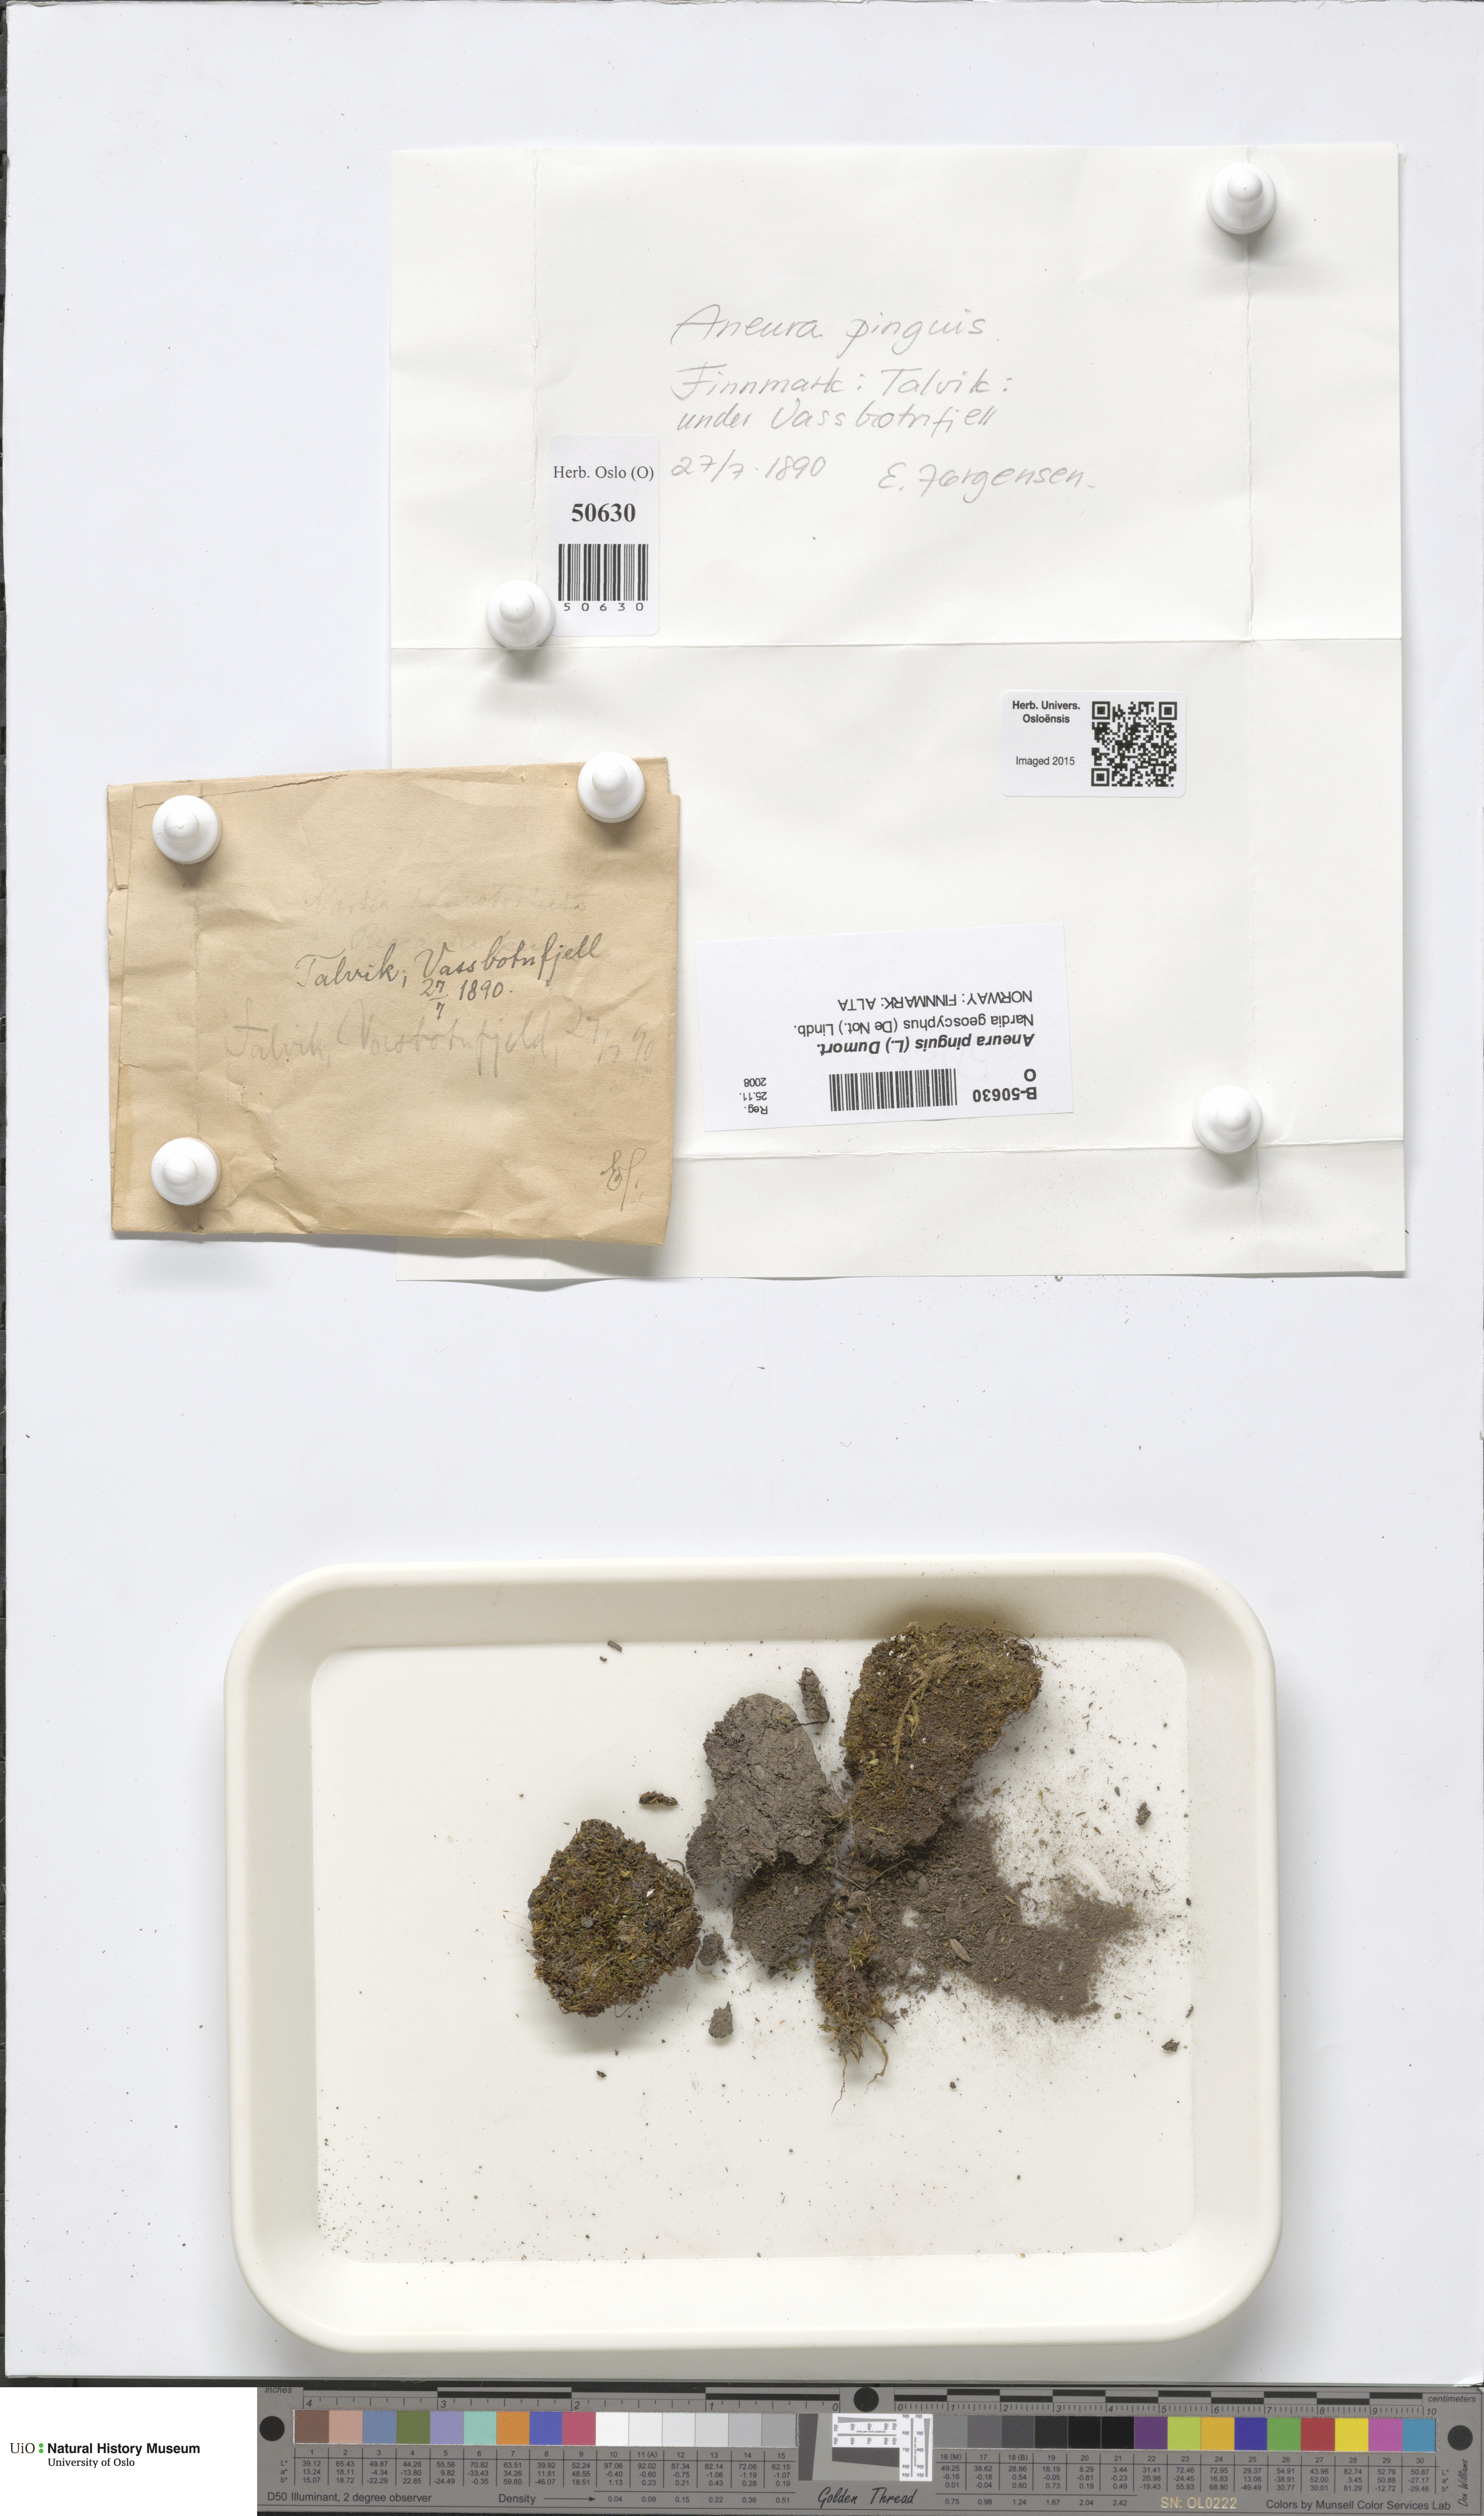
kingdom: Plantae
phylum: Marchantiophyta
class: Jungermanniopsida
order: Metzgeriales
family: Aneuraceae
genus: Aneura
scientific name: Aneura pinguis
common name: Common greasewort
